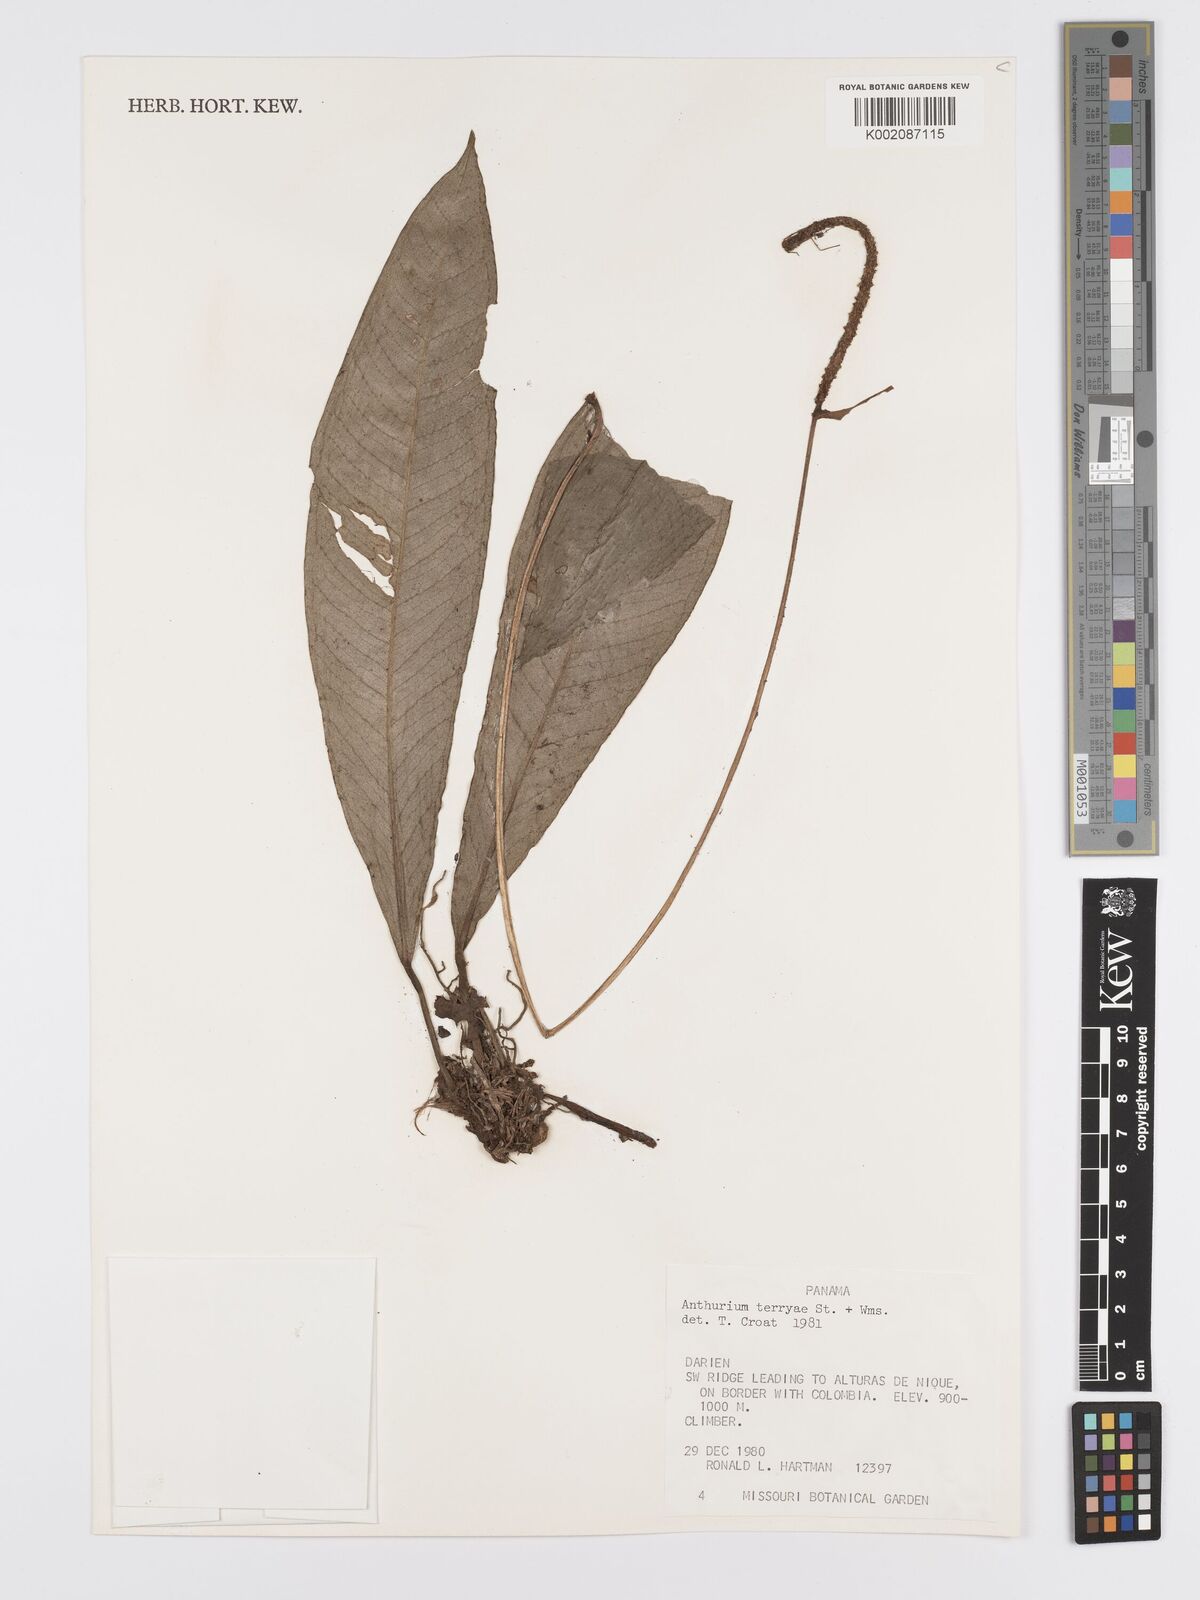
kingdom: Plantae
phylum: Tracheophyta
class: Liliopsida
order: Alismatales
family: Araceae
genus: Anthurium
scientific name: Anthurium terryae
